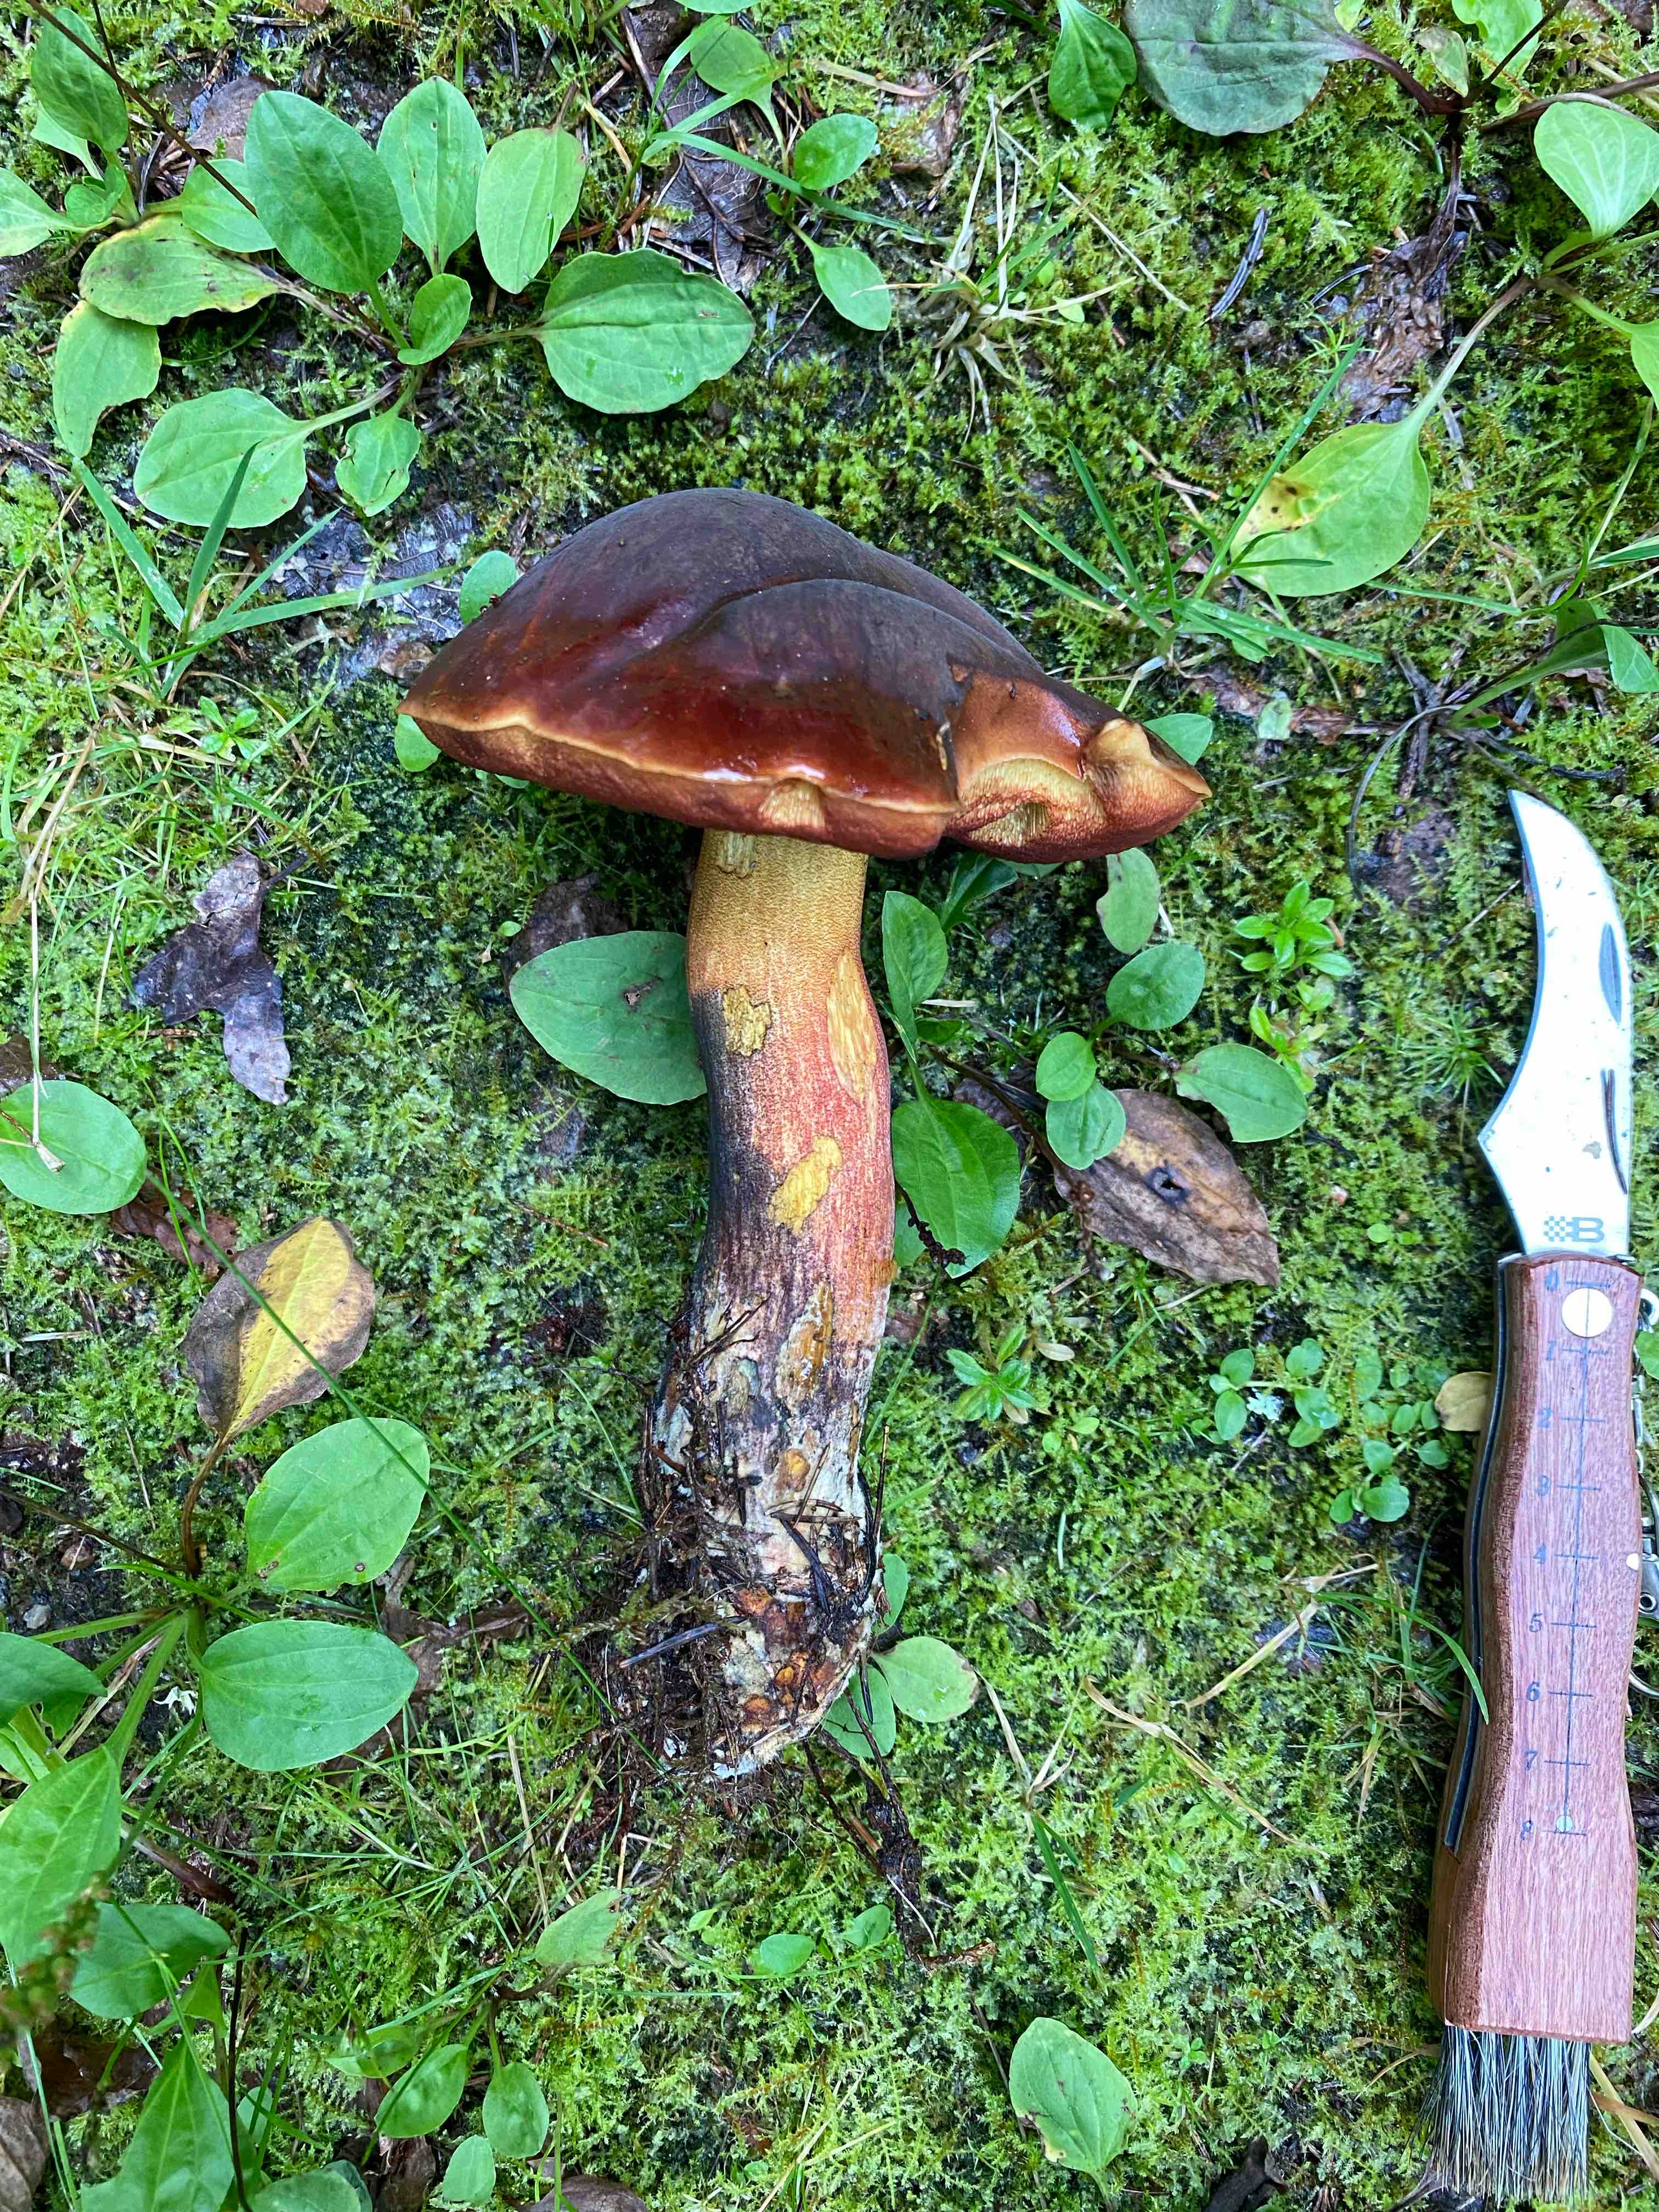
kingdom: Fungi
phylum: Basidiomycota
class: Agaricomycetes
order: Boletales
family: Boletaceae
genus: Neoboletus
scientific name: Neoboletus erythropus
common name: punktstokket indigorørhat
